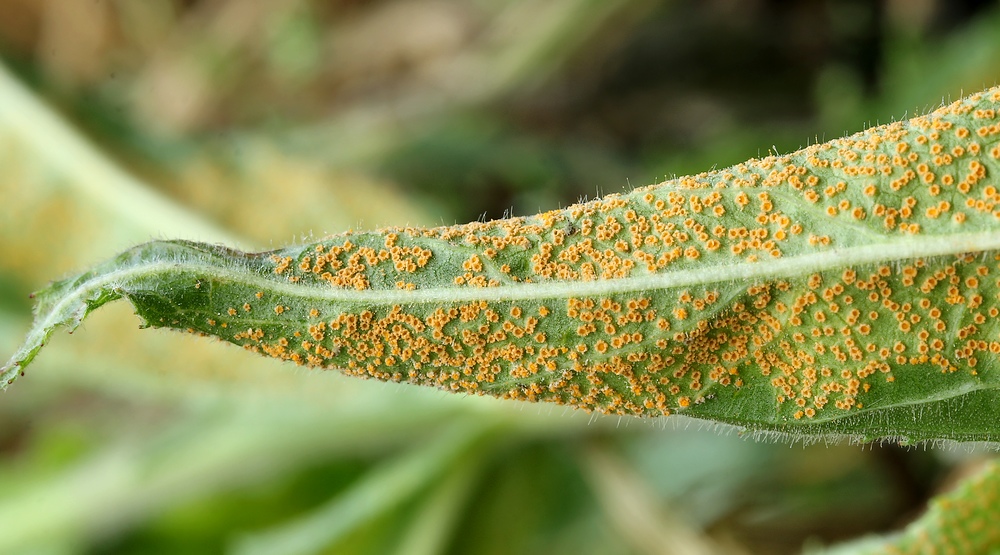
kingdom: Fungi
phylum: Basidiomycota
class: Pucciniomycetes
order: Pucciniales
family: Pucciniaceae
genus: Puccinia
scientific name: Puccinia pulverulenta
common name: dueurt-tvecellerust
